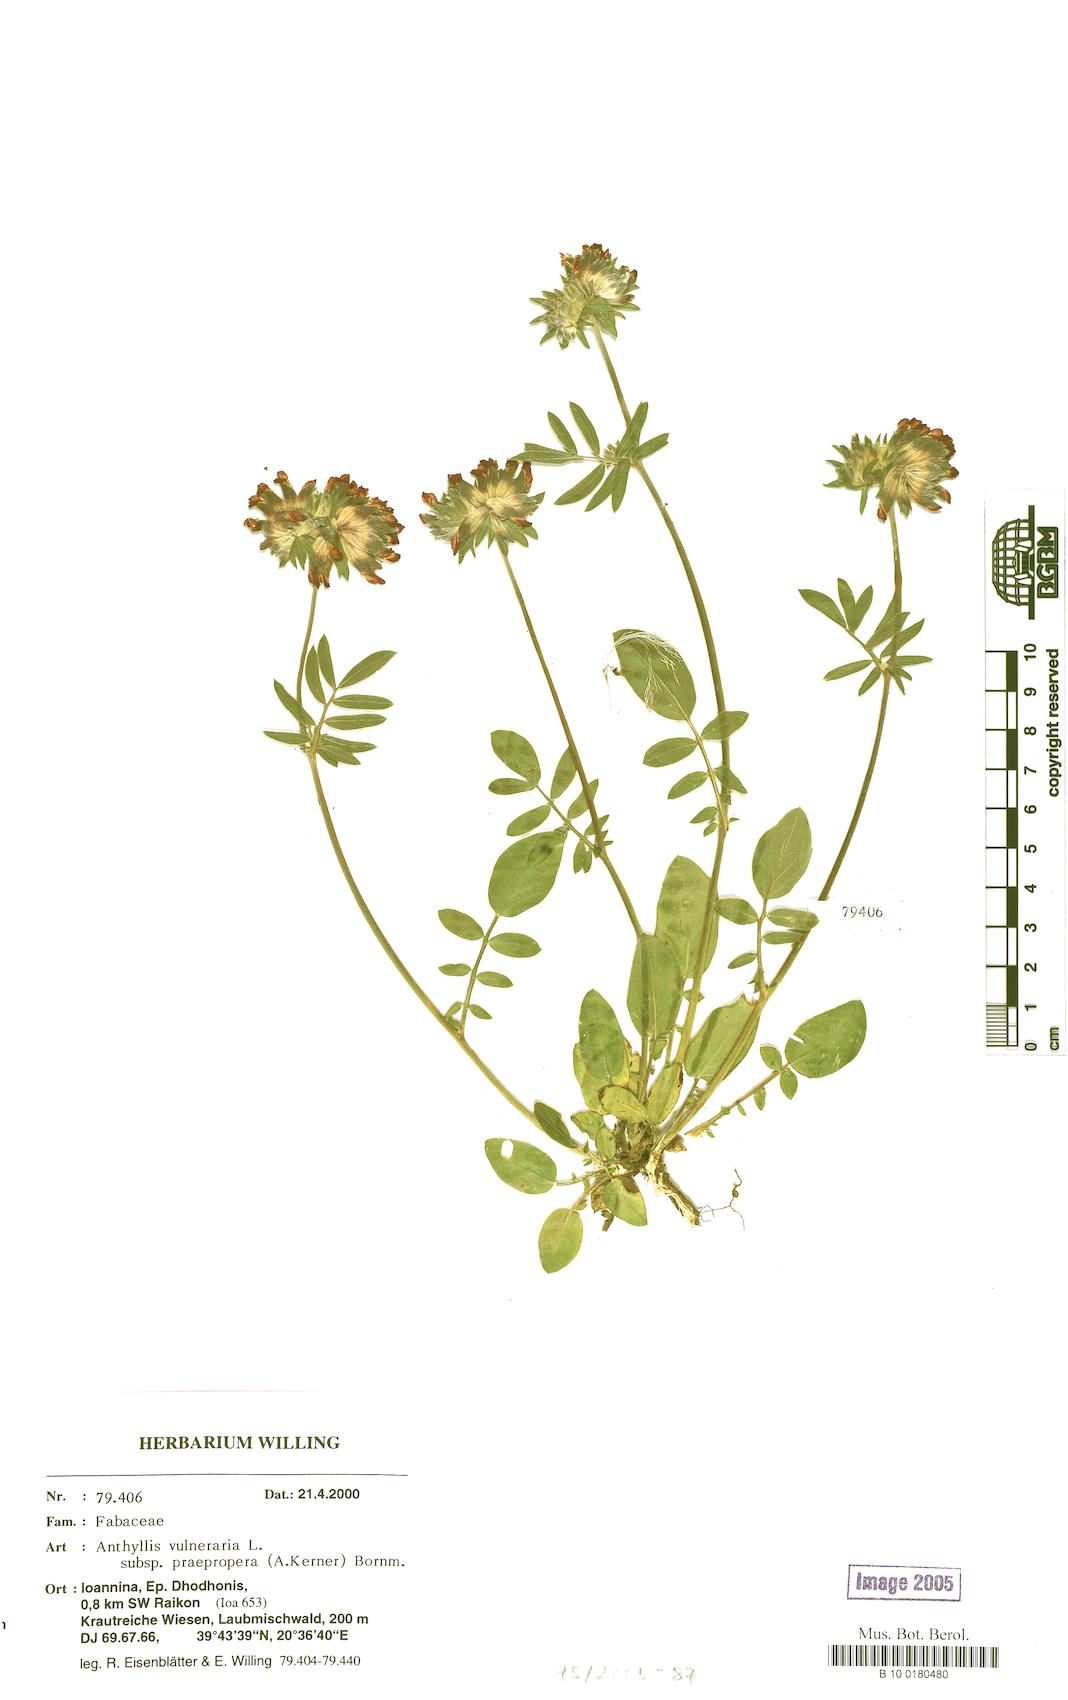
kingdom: Plantae
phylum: Tracheophyta
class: Magnoliopsida
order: Fabales
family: Fabaceae
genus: Anthyllis
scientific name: Anthyllis vulneraria
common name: Kidney vetch
